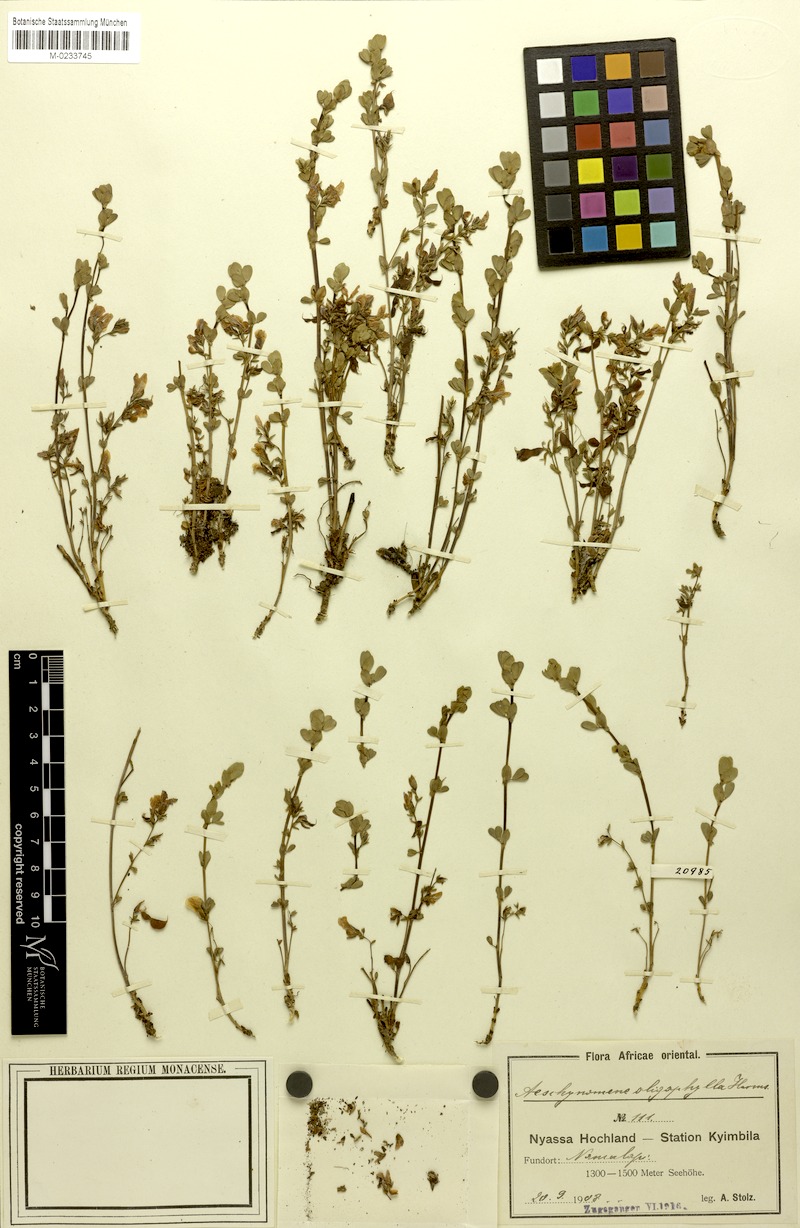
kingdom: Plantae
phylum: Tracheophyta
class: Magnoliopsida
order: Fabales
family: Fabaceae
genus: Aeschynomene
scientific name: Aeschynomene oligophylla
